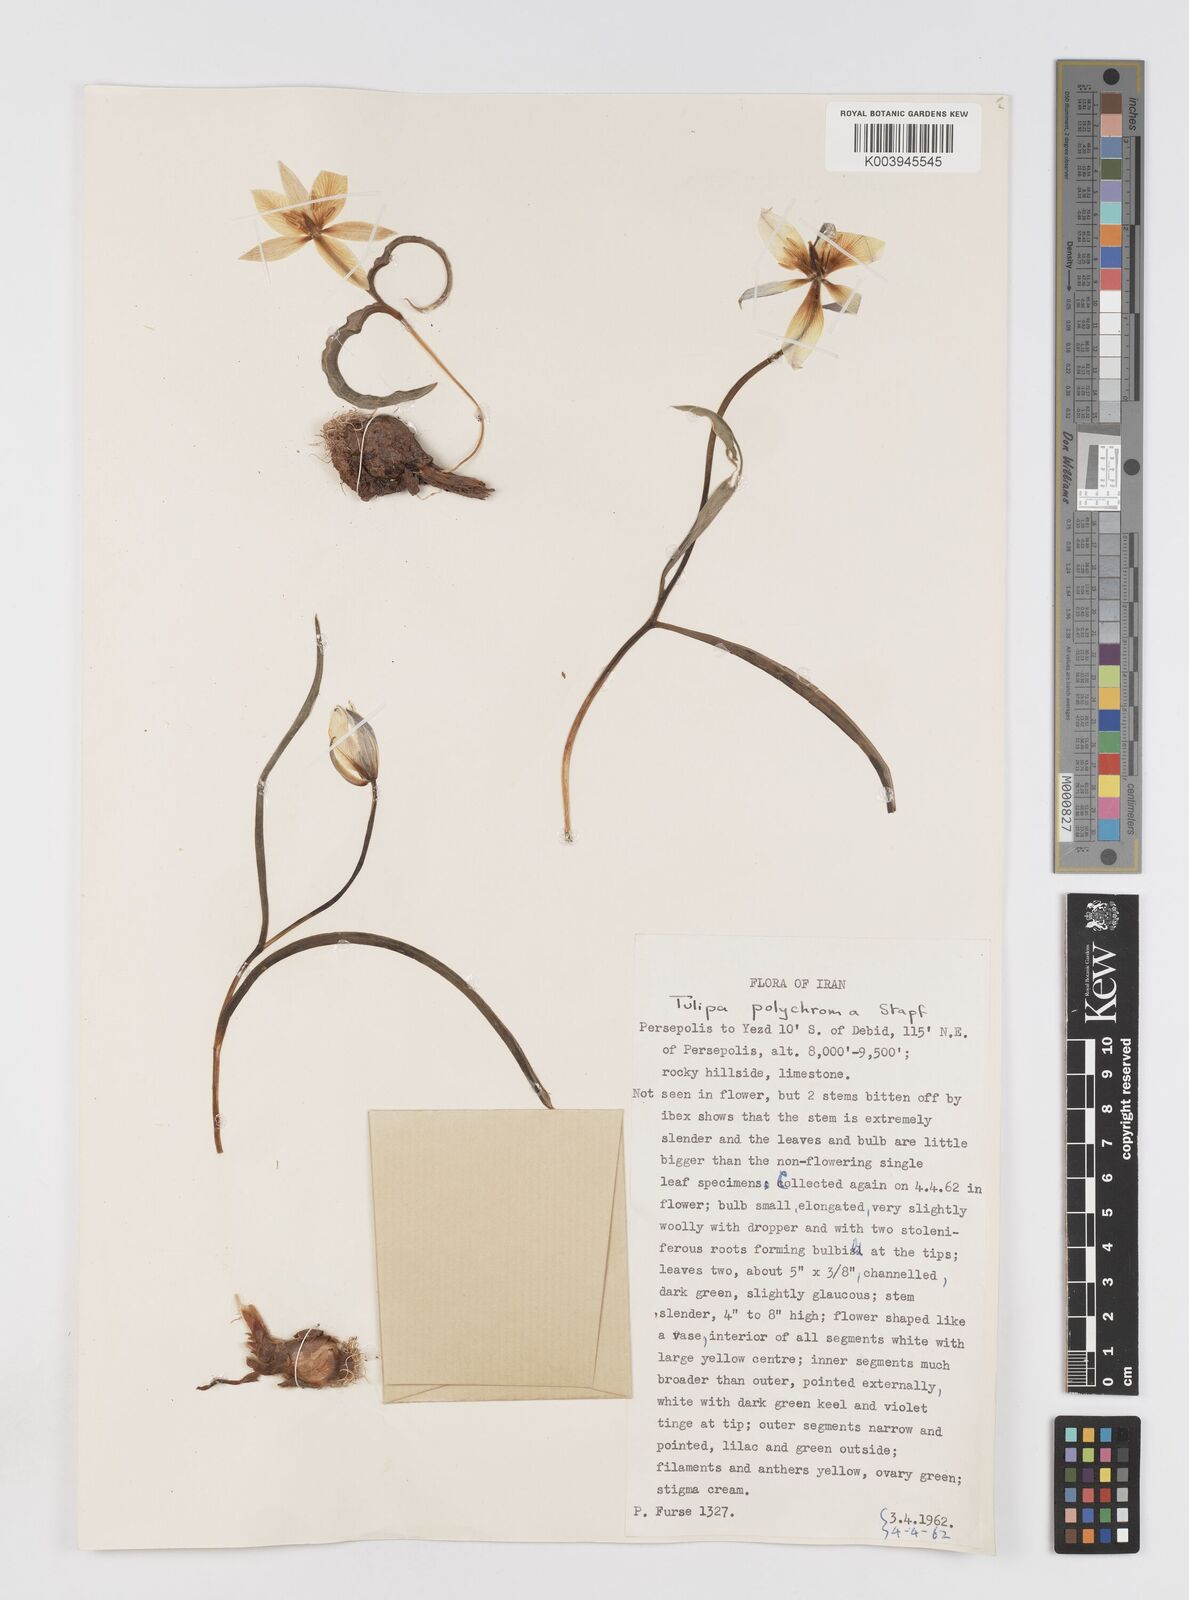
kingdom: Plantae
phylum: Tracheophyta
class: Liliopsida
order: Liliales
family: Liliaceae
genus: Tulipa
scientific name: Tulipa biflora
